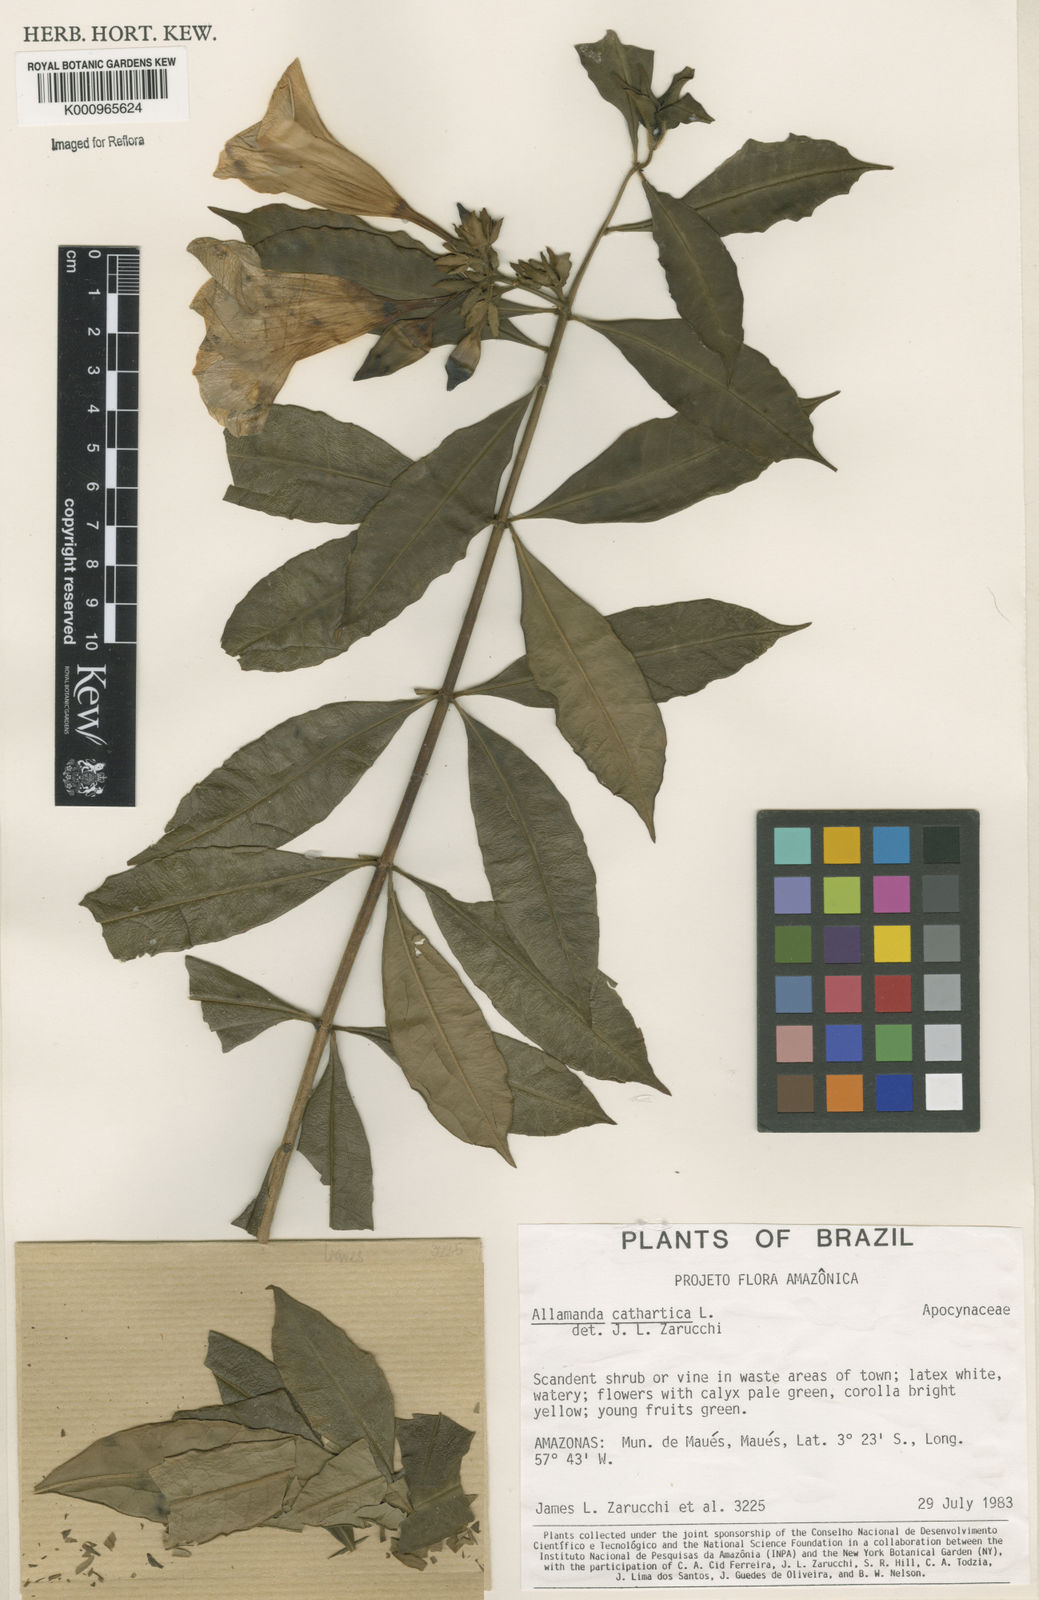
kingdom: Plantae
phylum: Tracheophyta
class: Magnoliopsida
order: Gentianales
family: Apocynaceae
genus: Allamanda
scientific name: Allamanda cathartica
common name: Golden trumpet
